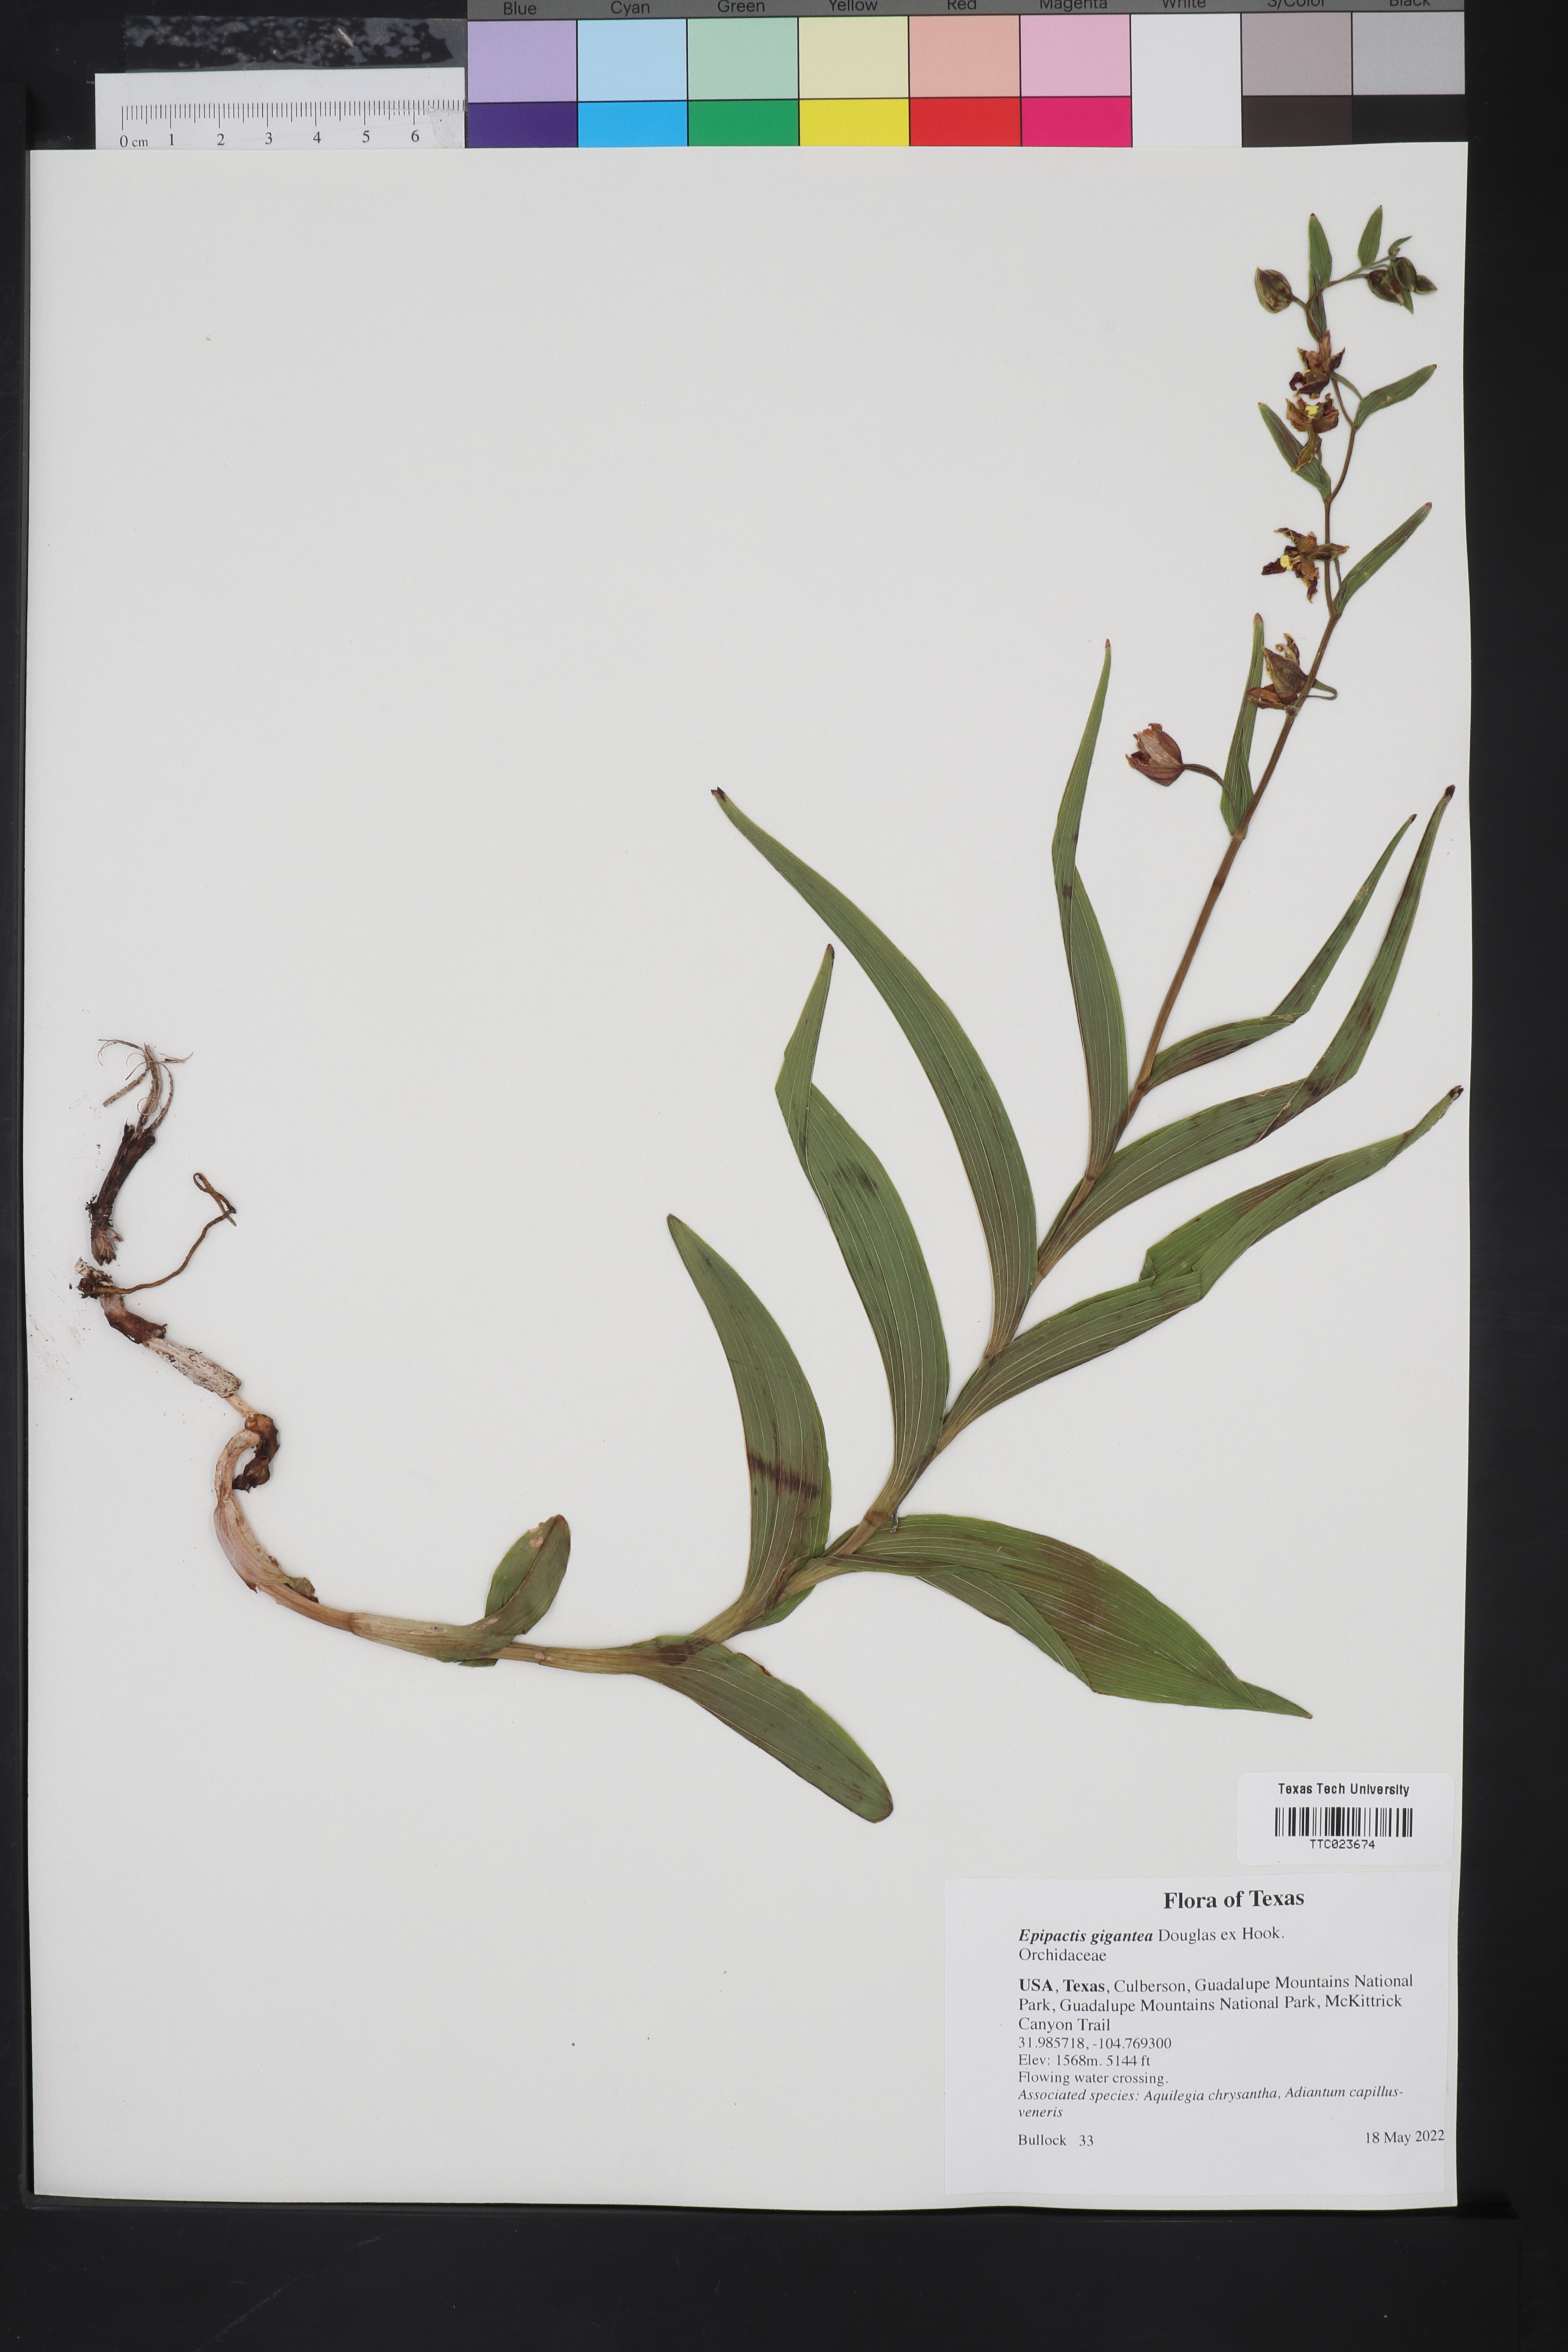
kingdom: Plantae
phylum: Tracheophyta
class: Liliopsida
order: Asparagales
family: Orchidaceae
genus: Epipactis
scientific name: Epipactis gigantea
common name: Chatterbox
